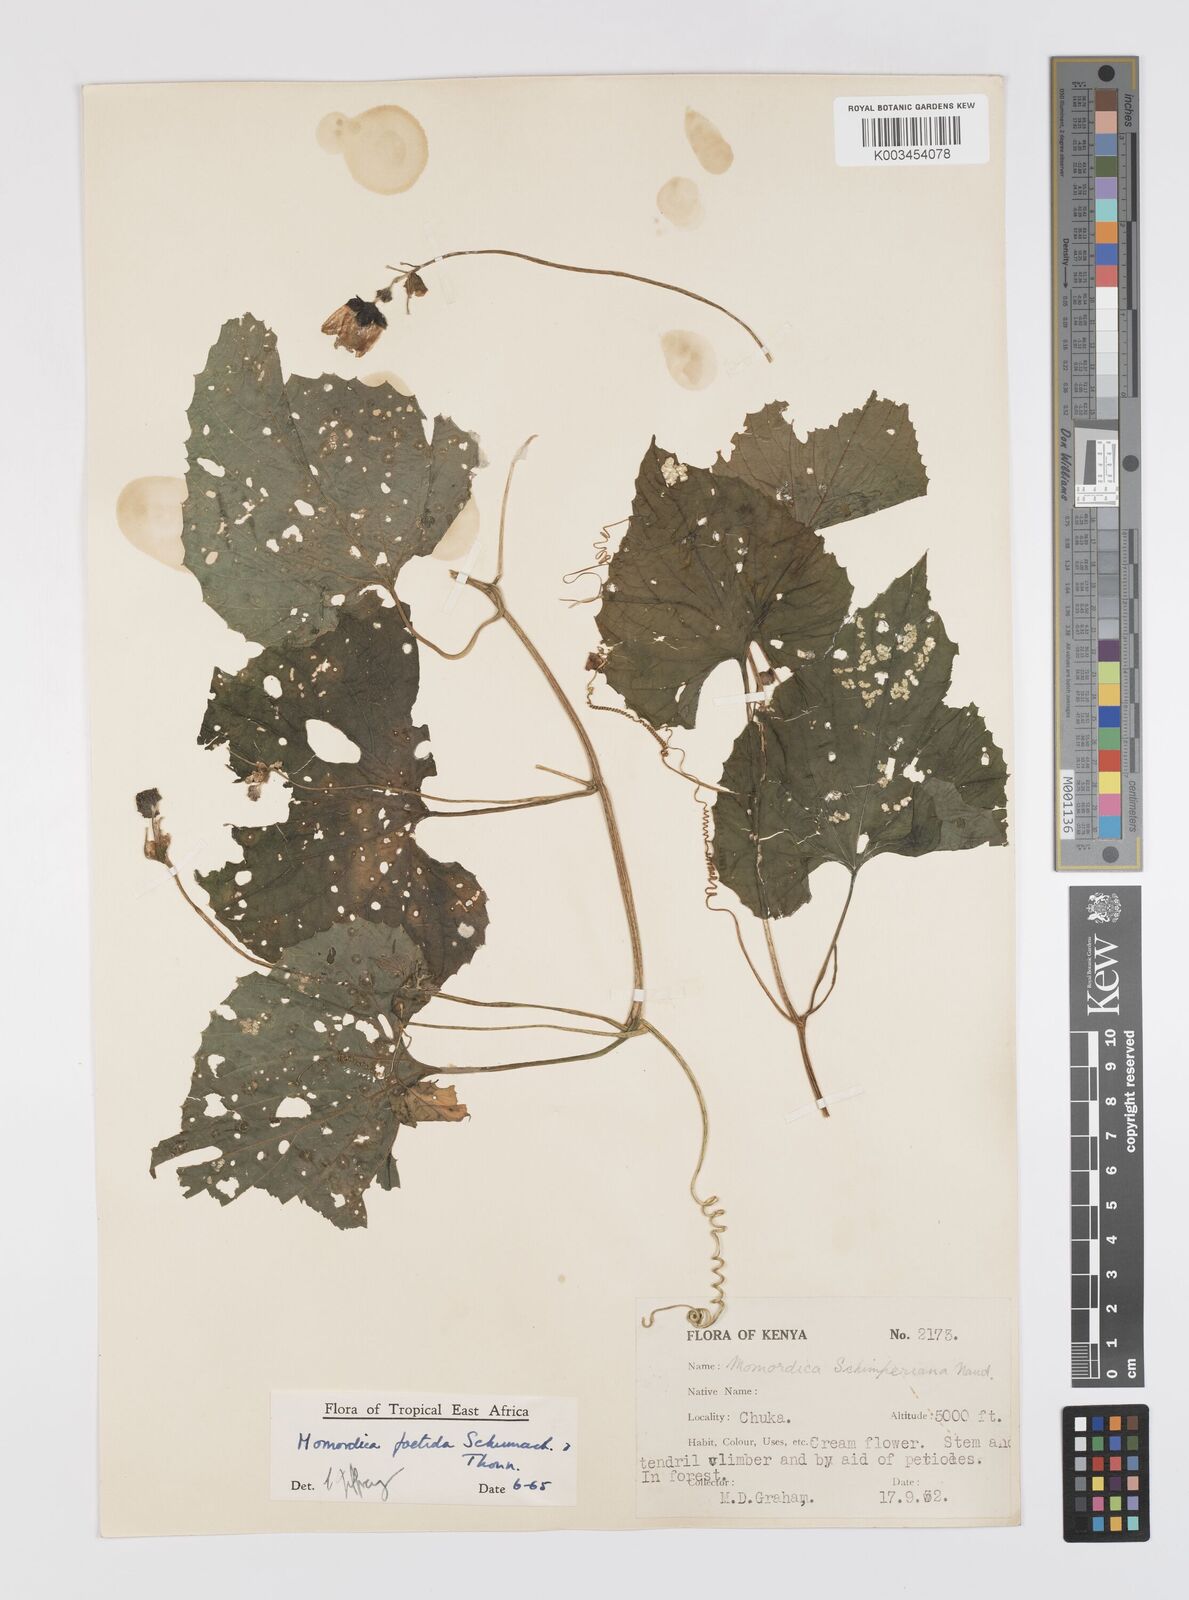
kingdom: Plantae
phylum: Tracheophyta
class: Magnoliopsida
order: Cucurbitales
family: Cucurbitaceae
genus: Momordica
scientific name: Momordica foetida
